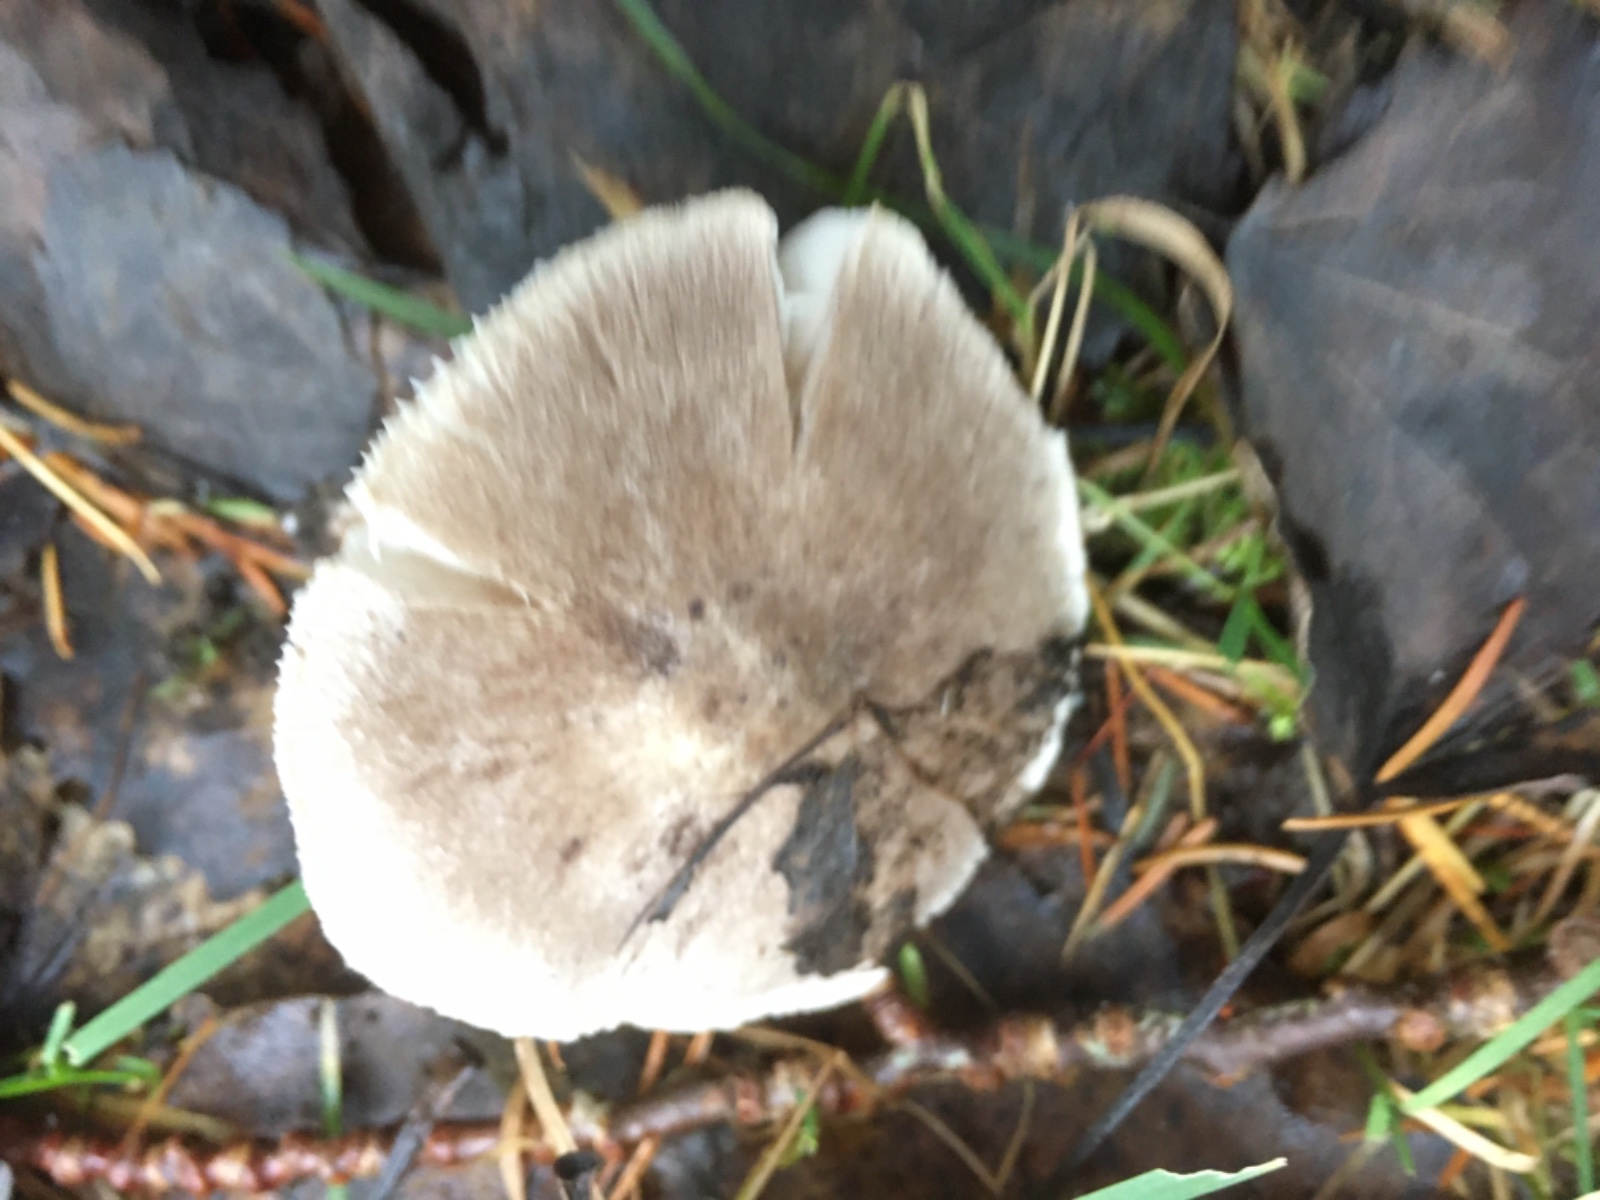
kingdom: Fungi
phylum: Basidiomycota
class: Agaricomycetes
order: Agaricales
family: Tricholomataceae
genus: Tricholoma
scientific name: Tricholoma terreum
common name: jordfarvet ridderhat
